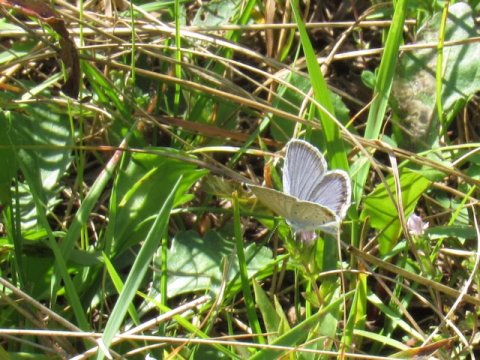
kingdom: Animalia
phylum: Arthropoda
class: Insecta
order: Lepidoptera
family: Lycaenidae
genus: Elkalyce
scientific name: Elkalyce comyntas
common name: Eastern Tailed-Blue
